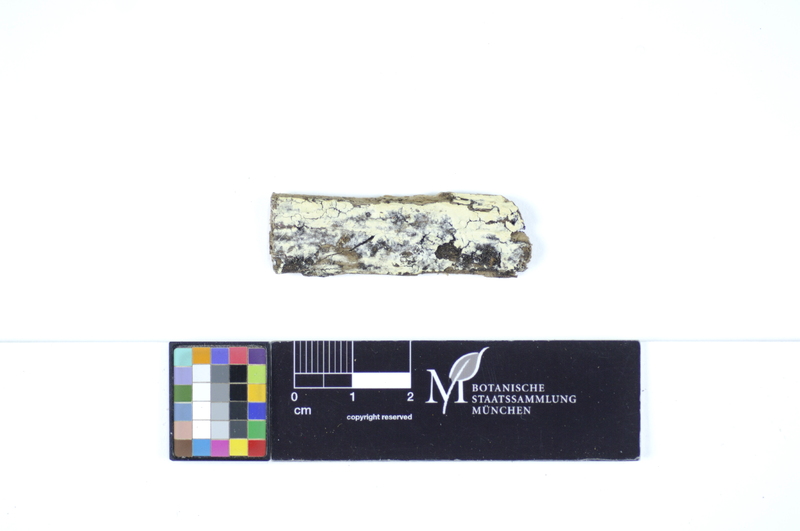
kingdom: Fungi
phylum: Basidiomycota
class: Agaricomycetes
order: Polyporales
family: Meruliaceae
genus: Conohypha
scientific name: Conohypha terricola
